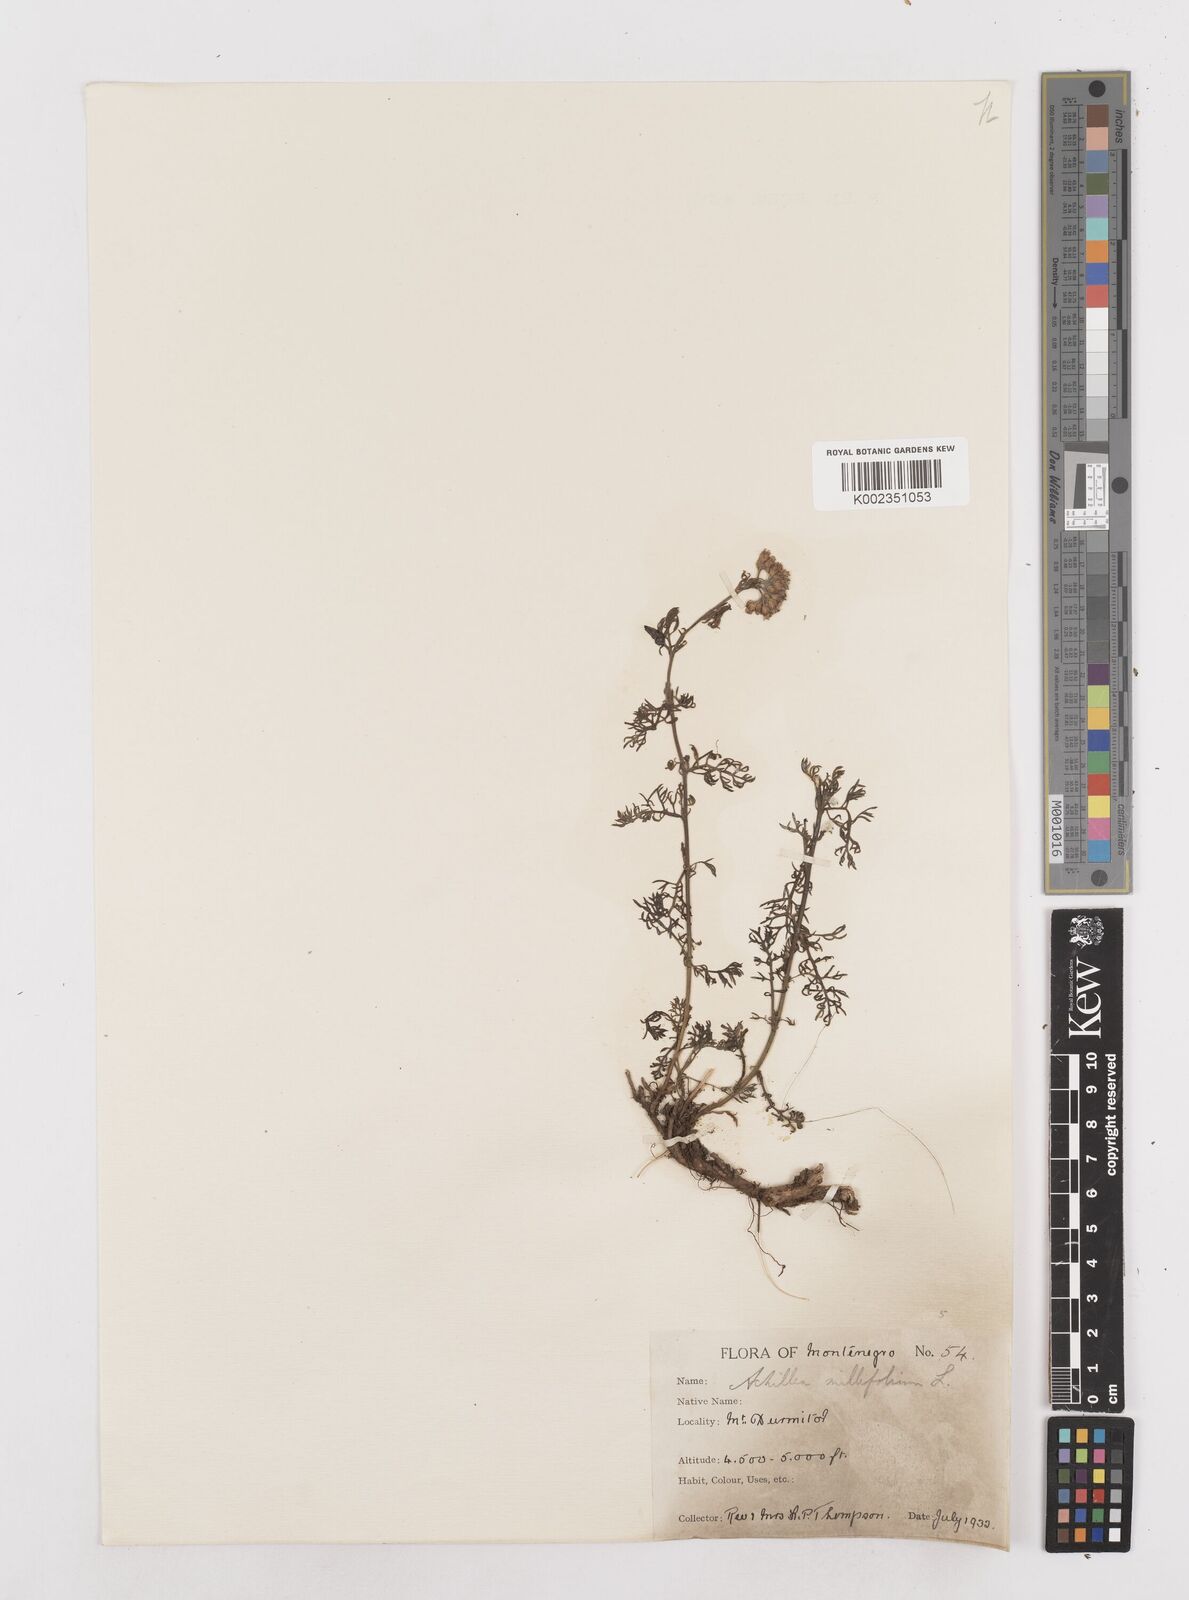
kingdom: Plantae
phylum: Tracheophyta
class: Magnoliopsida
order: Asterales
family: Asteraceae
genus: Achillea
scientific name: Achillea millefolium
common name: Yarrow
